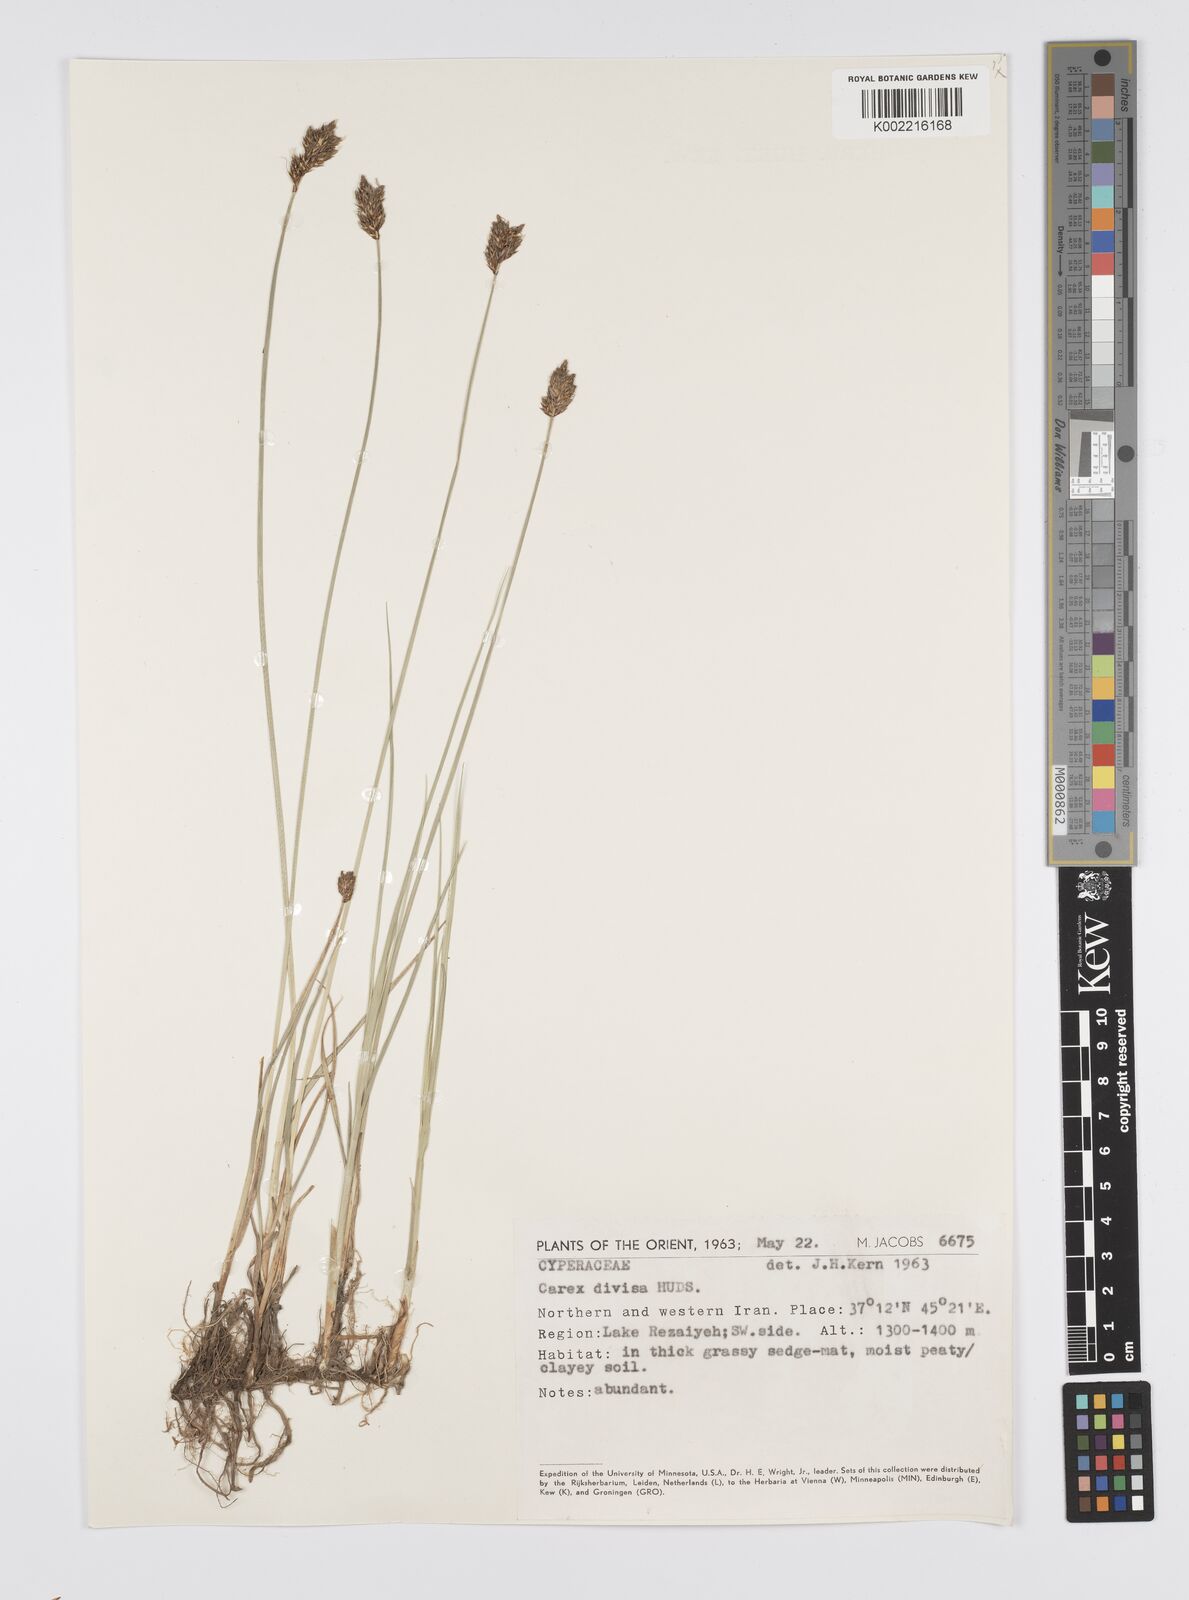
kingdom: Plantae
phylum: Tracheophyta
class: Liliopsida
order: Poales
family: Cyperaceae
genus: Carex
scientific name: Carex divisa
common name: Divided sedge
